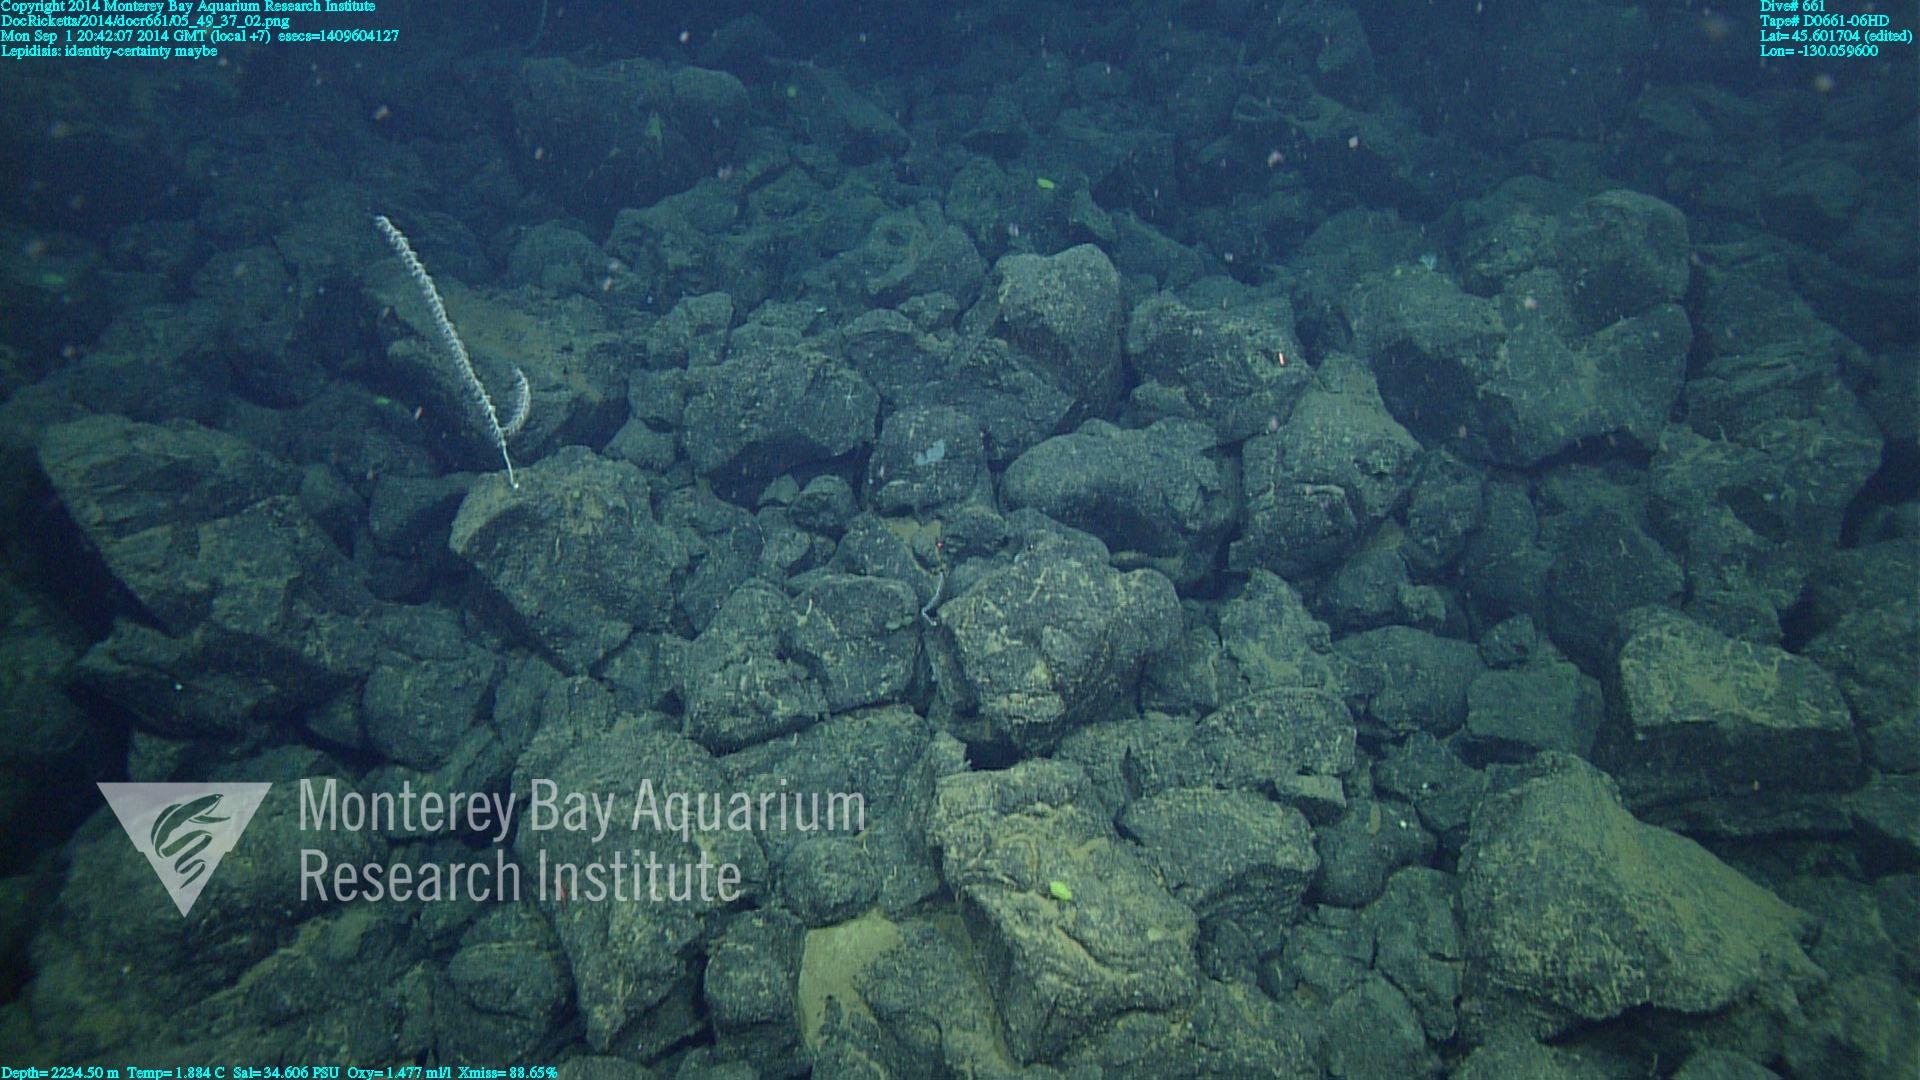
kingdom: Animalia
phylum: Cnidaria
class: Anthozoa
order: Scleralcyonacea
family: Keratoisididae
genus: Lepidisis
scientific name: Lepidisis
